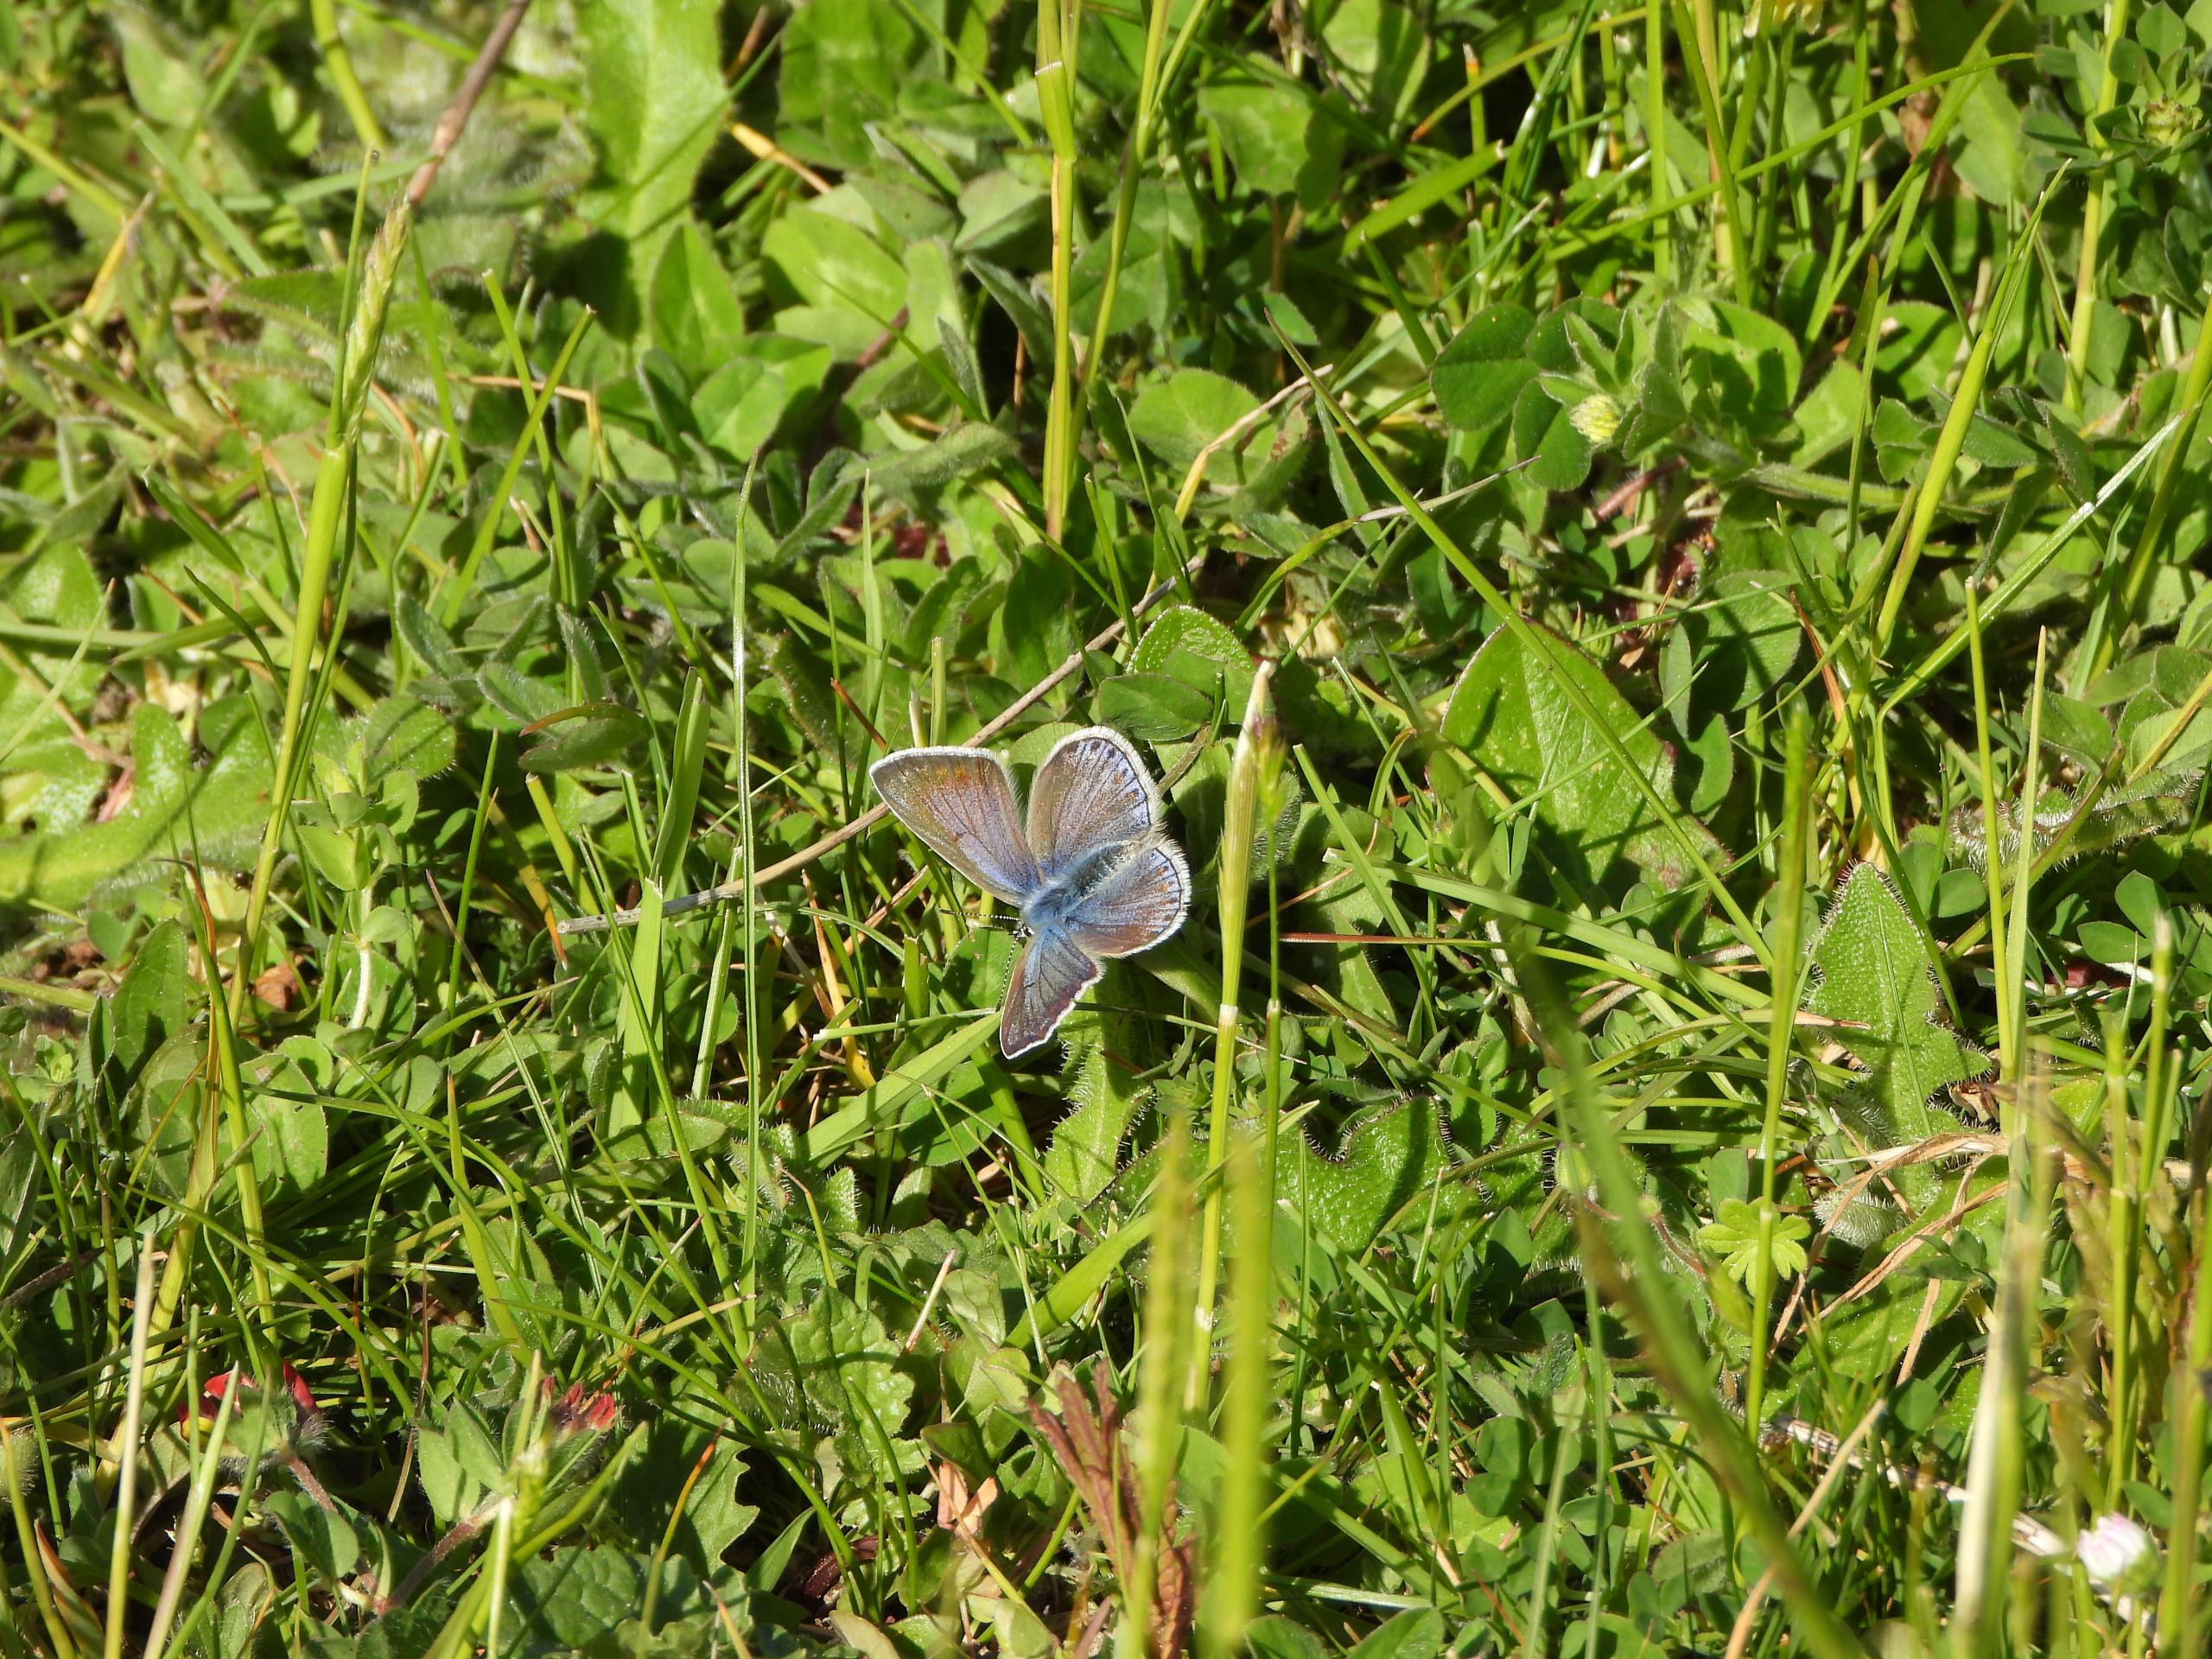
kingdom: Animalia
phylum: Arthropoda
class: Insecta
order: Lepidoptera
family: Lycaenidae
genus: Polyommatus
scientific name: Polyommatus icarus
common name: Almindelig blåfugl
